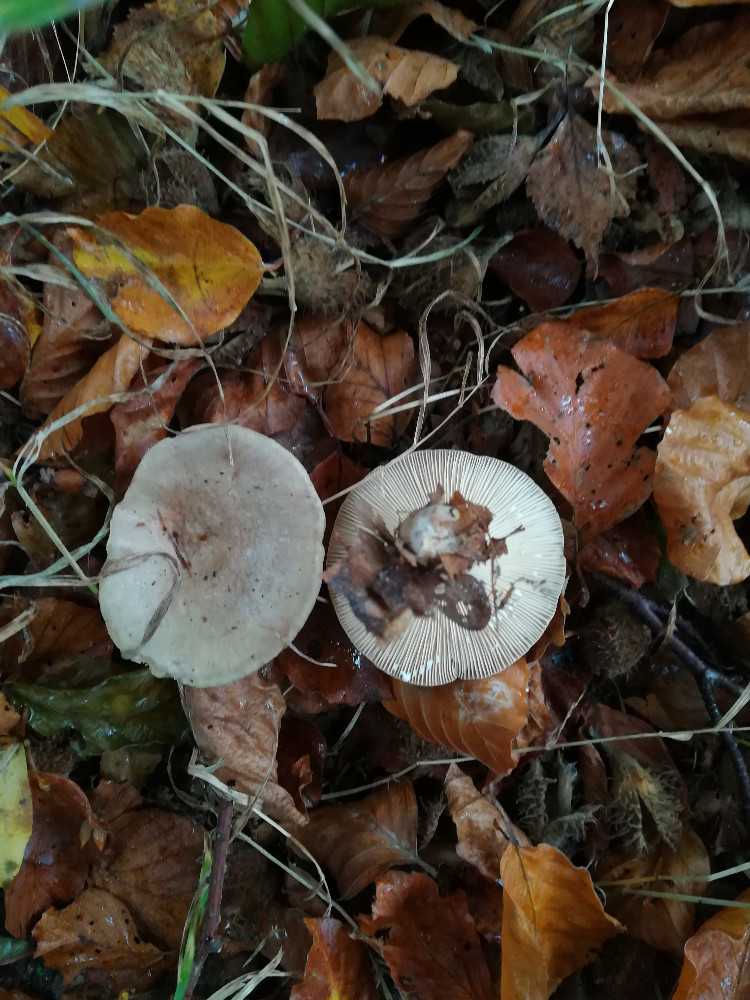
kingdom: Fungi
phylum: Basidiomycota
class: Agaricomycetes
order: Russulales
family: Russulaceae
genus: Lactarius
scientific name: Lactarius blennius
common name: dråbeplettet mælkehat
